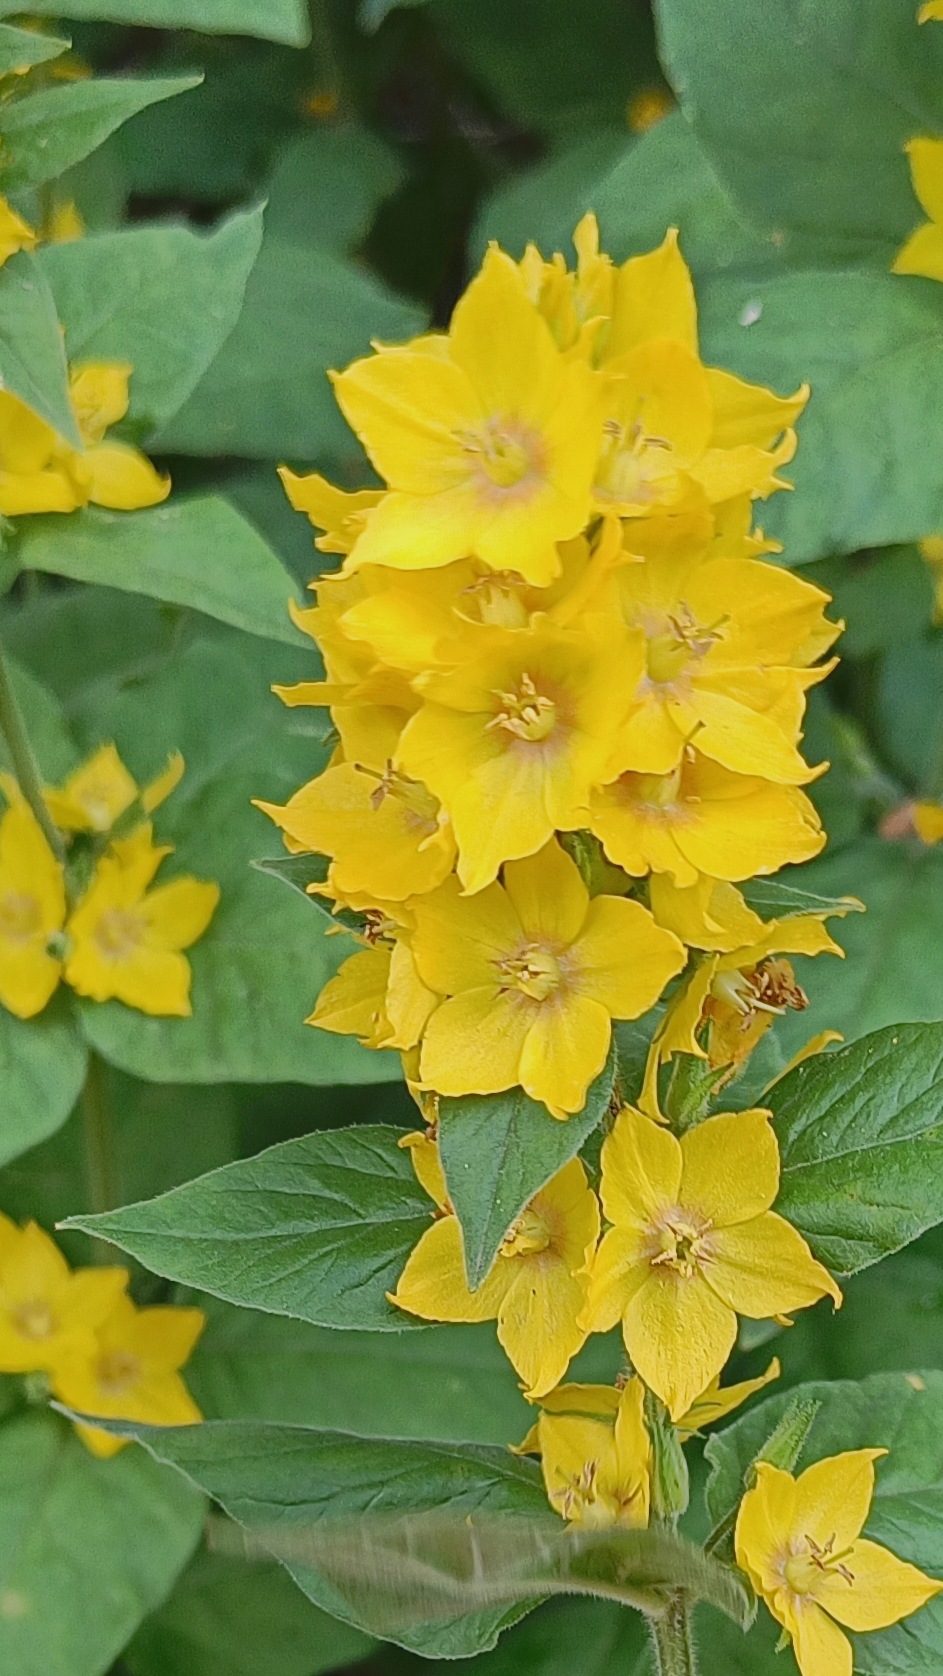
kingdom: Plantae
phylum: Tracheophyta
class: Magnoliopsida
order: Ericales
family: Primulaceae
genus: Lysimachia
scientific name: Lysimachia punctata
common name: Prikbladet fredløs
